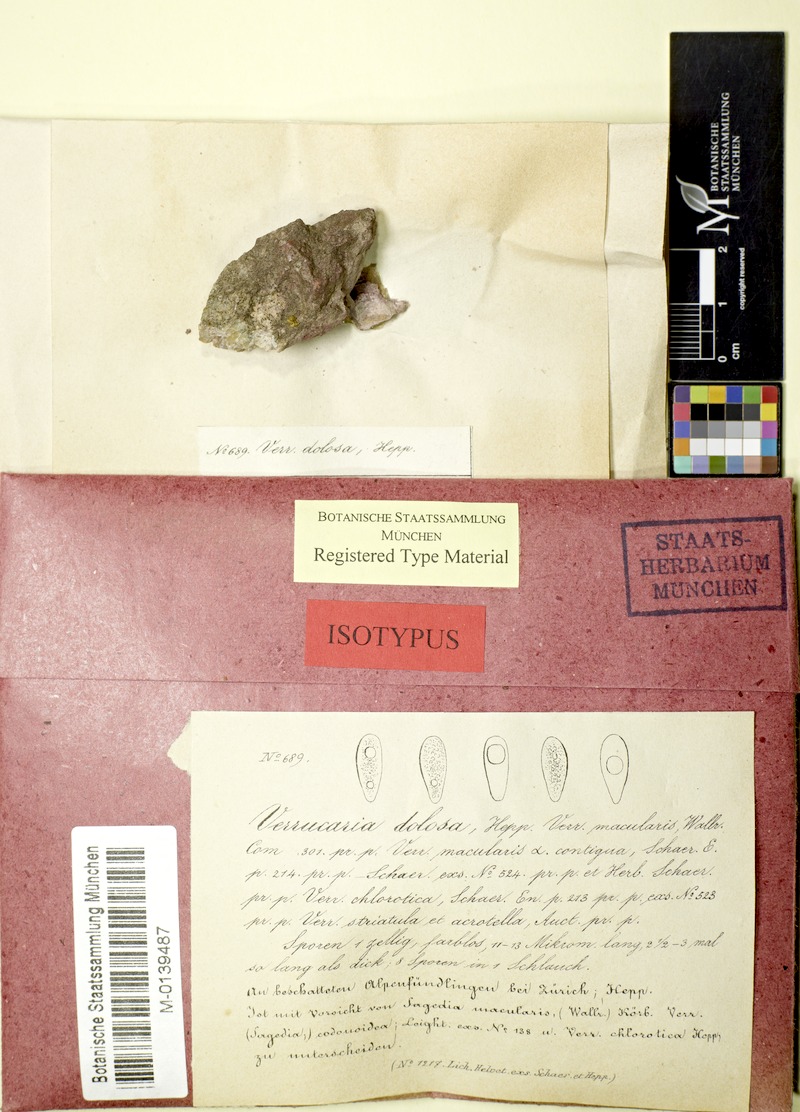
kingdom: Fungi
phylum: Ascomycota
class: Eurotiomycetes
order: Verrucariales
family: Verrucariaceae
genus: Verrucaria
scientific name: Verrucaria dolosa
